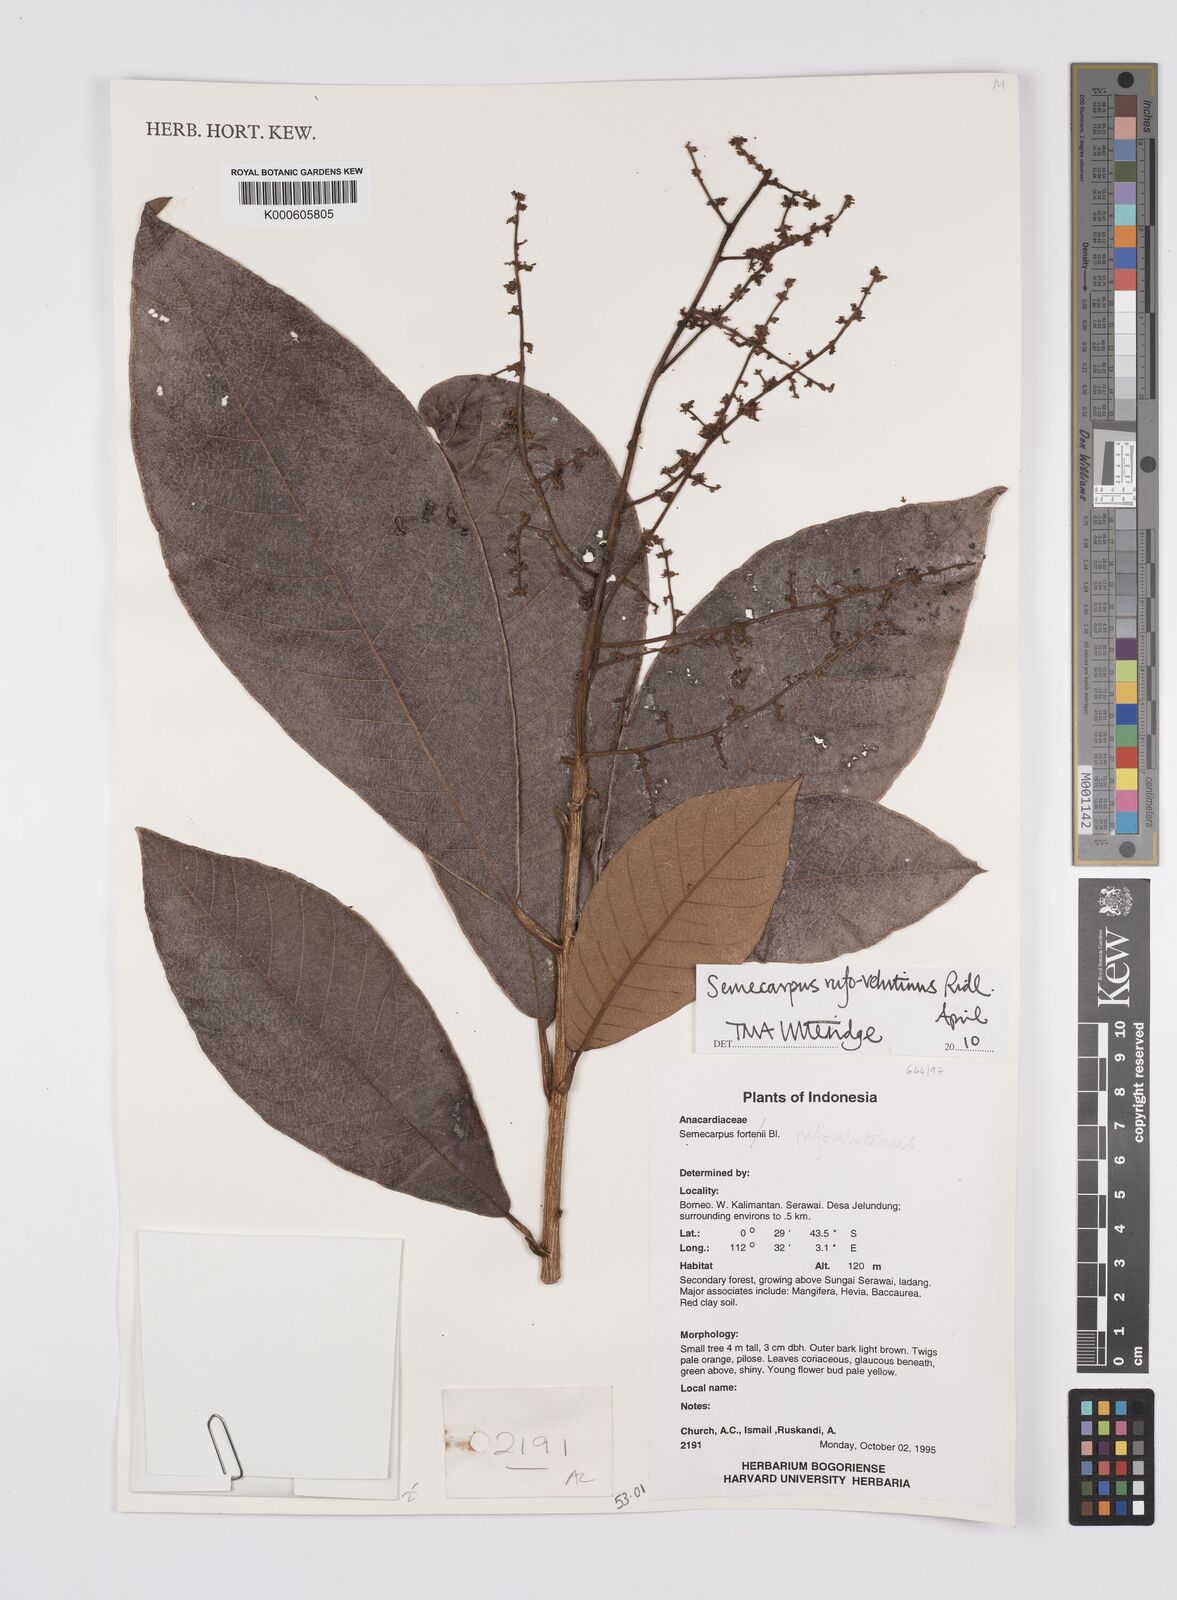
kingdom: Plantae
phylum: Tracheophyta
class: Magnoliopsida
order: Sapindales
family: Anacardiaceae
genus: Semecarpus
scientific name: Semecarpus rufovelutinus
